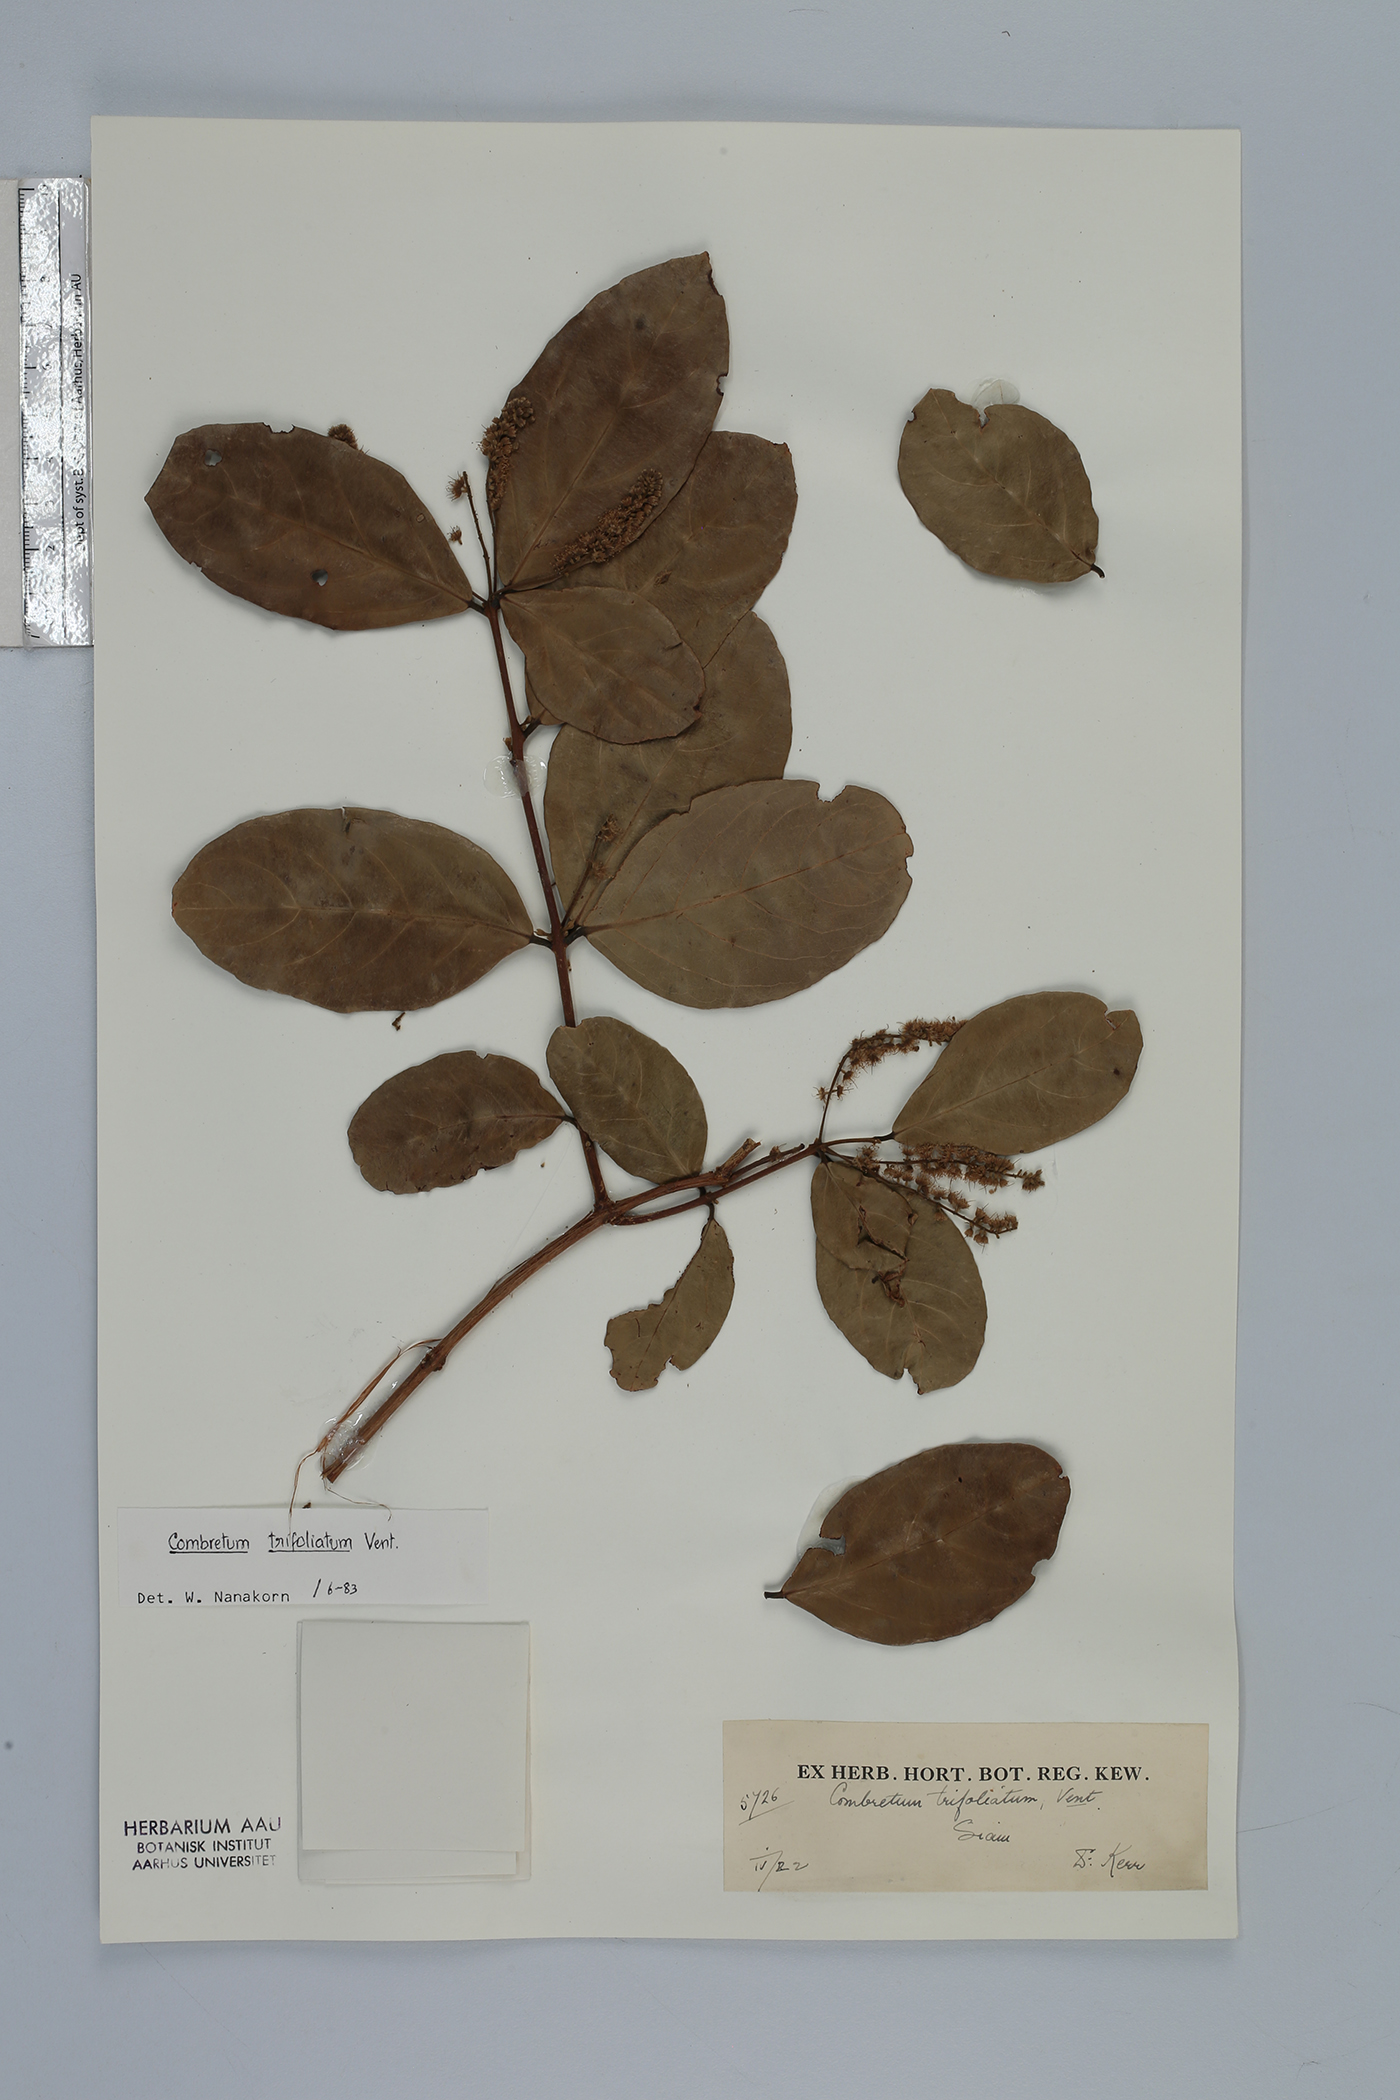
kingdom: Plantae
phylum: Tracheophyta
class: Magnoliopsida
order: Myrtales
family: Combretaceae
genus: Combretum
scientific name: Combretum trifoliatum
